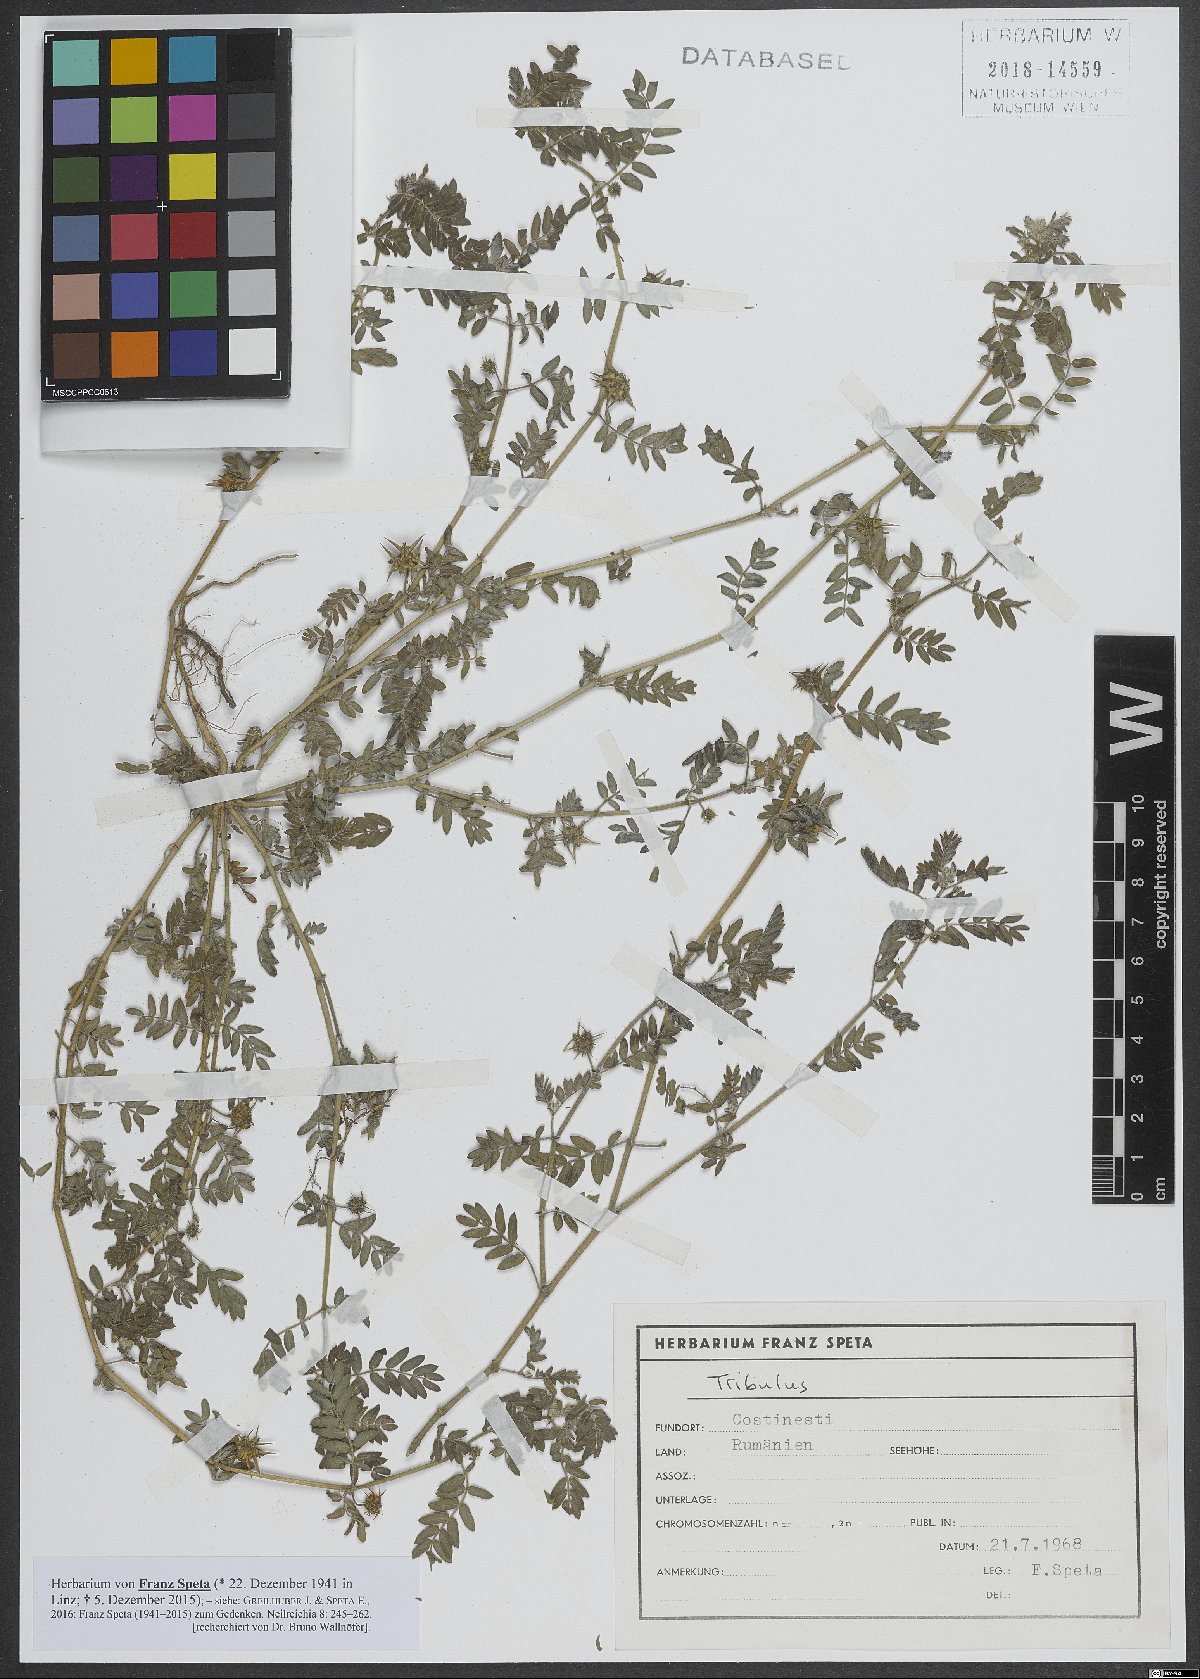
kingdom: Plantae
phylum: Tracheophyta
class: Magnoliopsida
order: Zygophyllales
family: Zygophyllaceae
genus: Tribulus
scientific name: Tribulus
